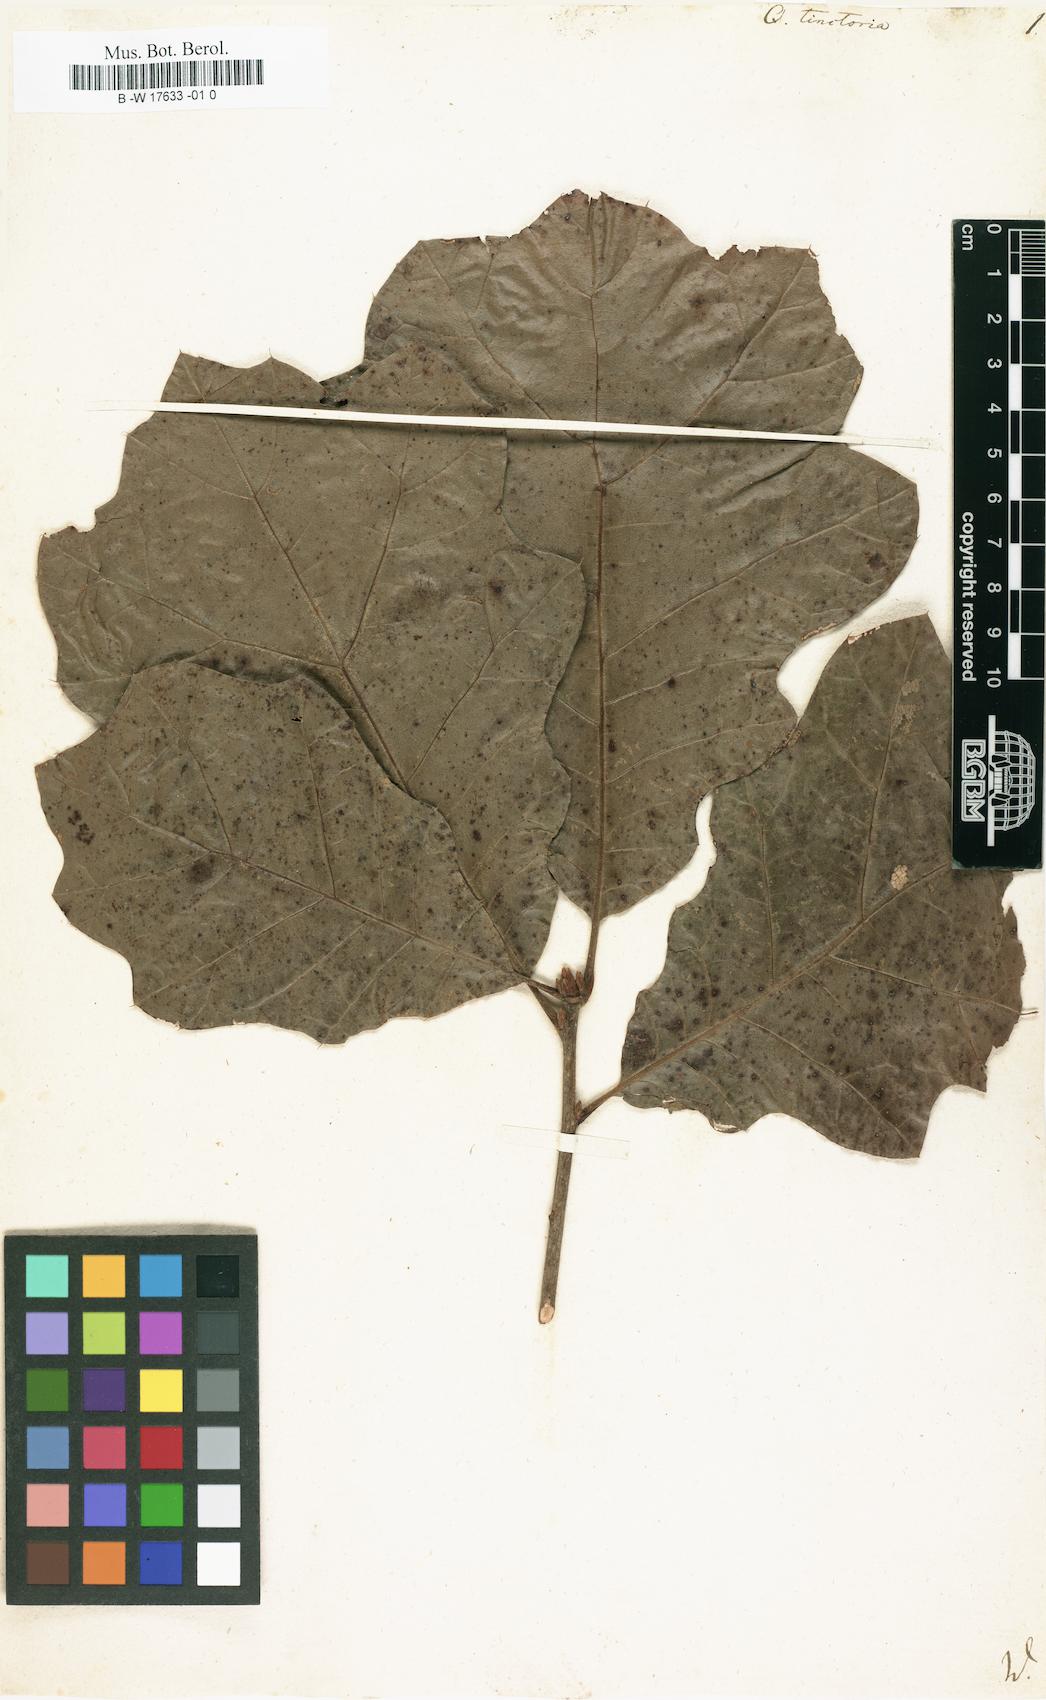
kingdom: Plantae
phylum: Tracheophyta
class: Magnoliopsida
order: Fagales
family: Fagaceae
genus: Quercus
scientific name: Quercus velutina
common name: Black oak
